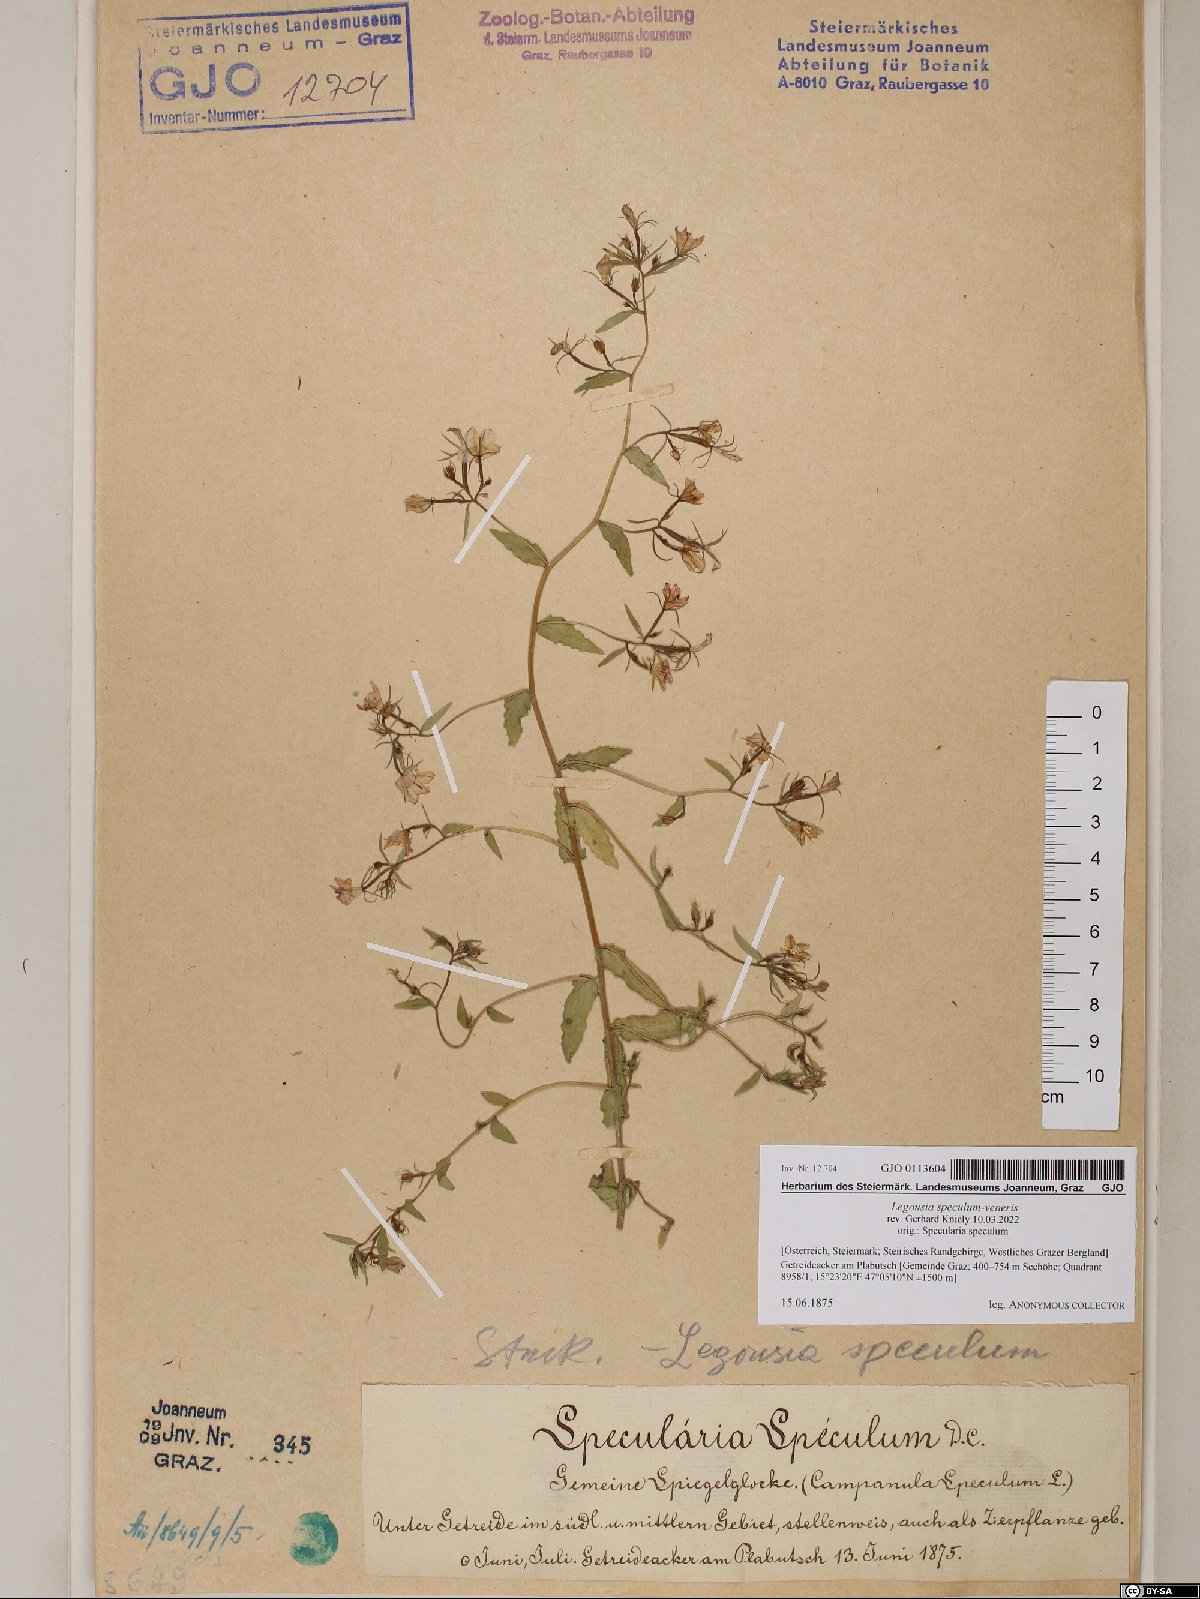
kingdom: Plantae
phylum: Tracheophyta
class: Magnoliopsida
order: Asterales
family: Campanulaceae
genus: Legousia
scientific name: Legousia speculum-veneris
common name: Large venus's-looking-glass
